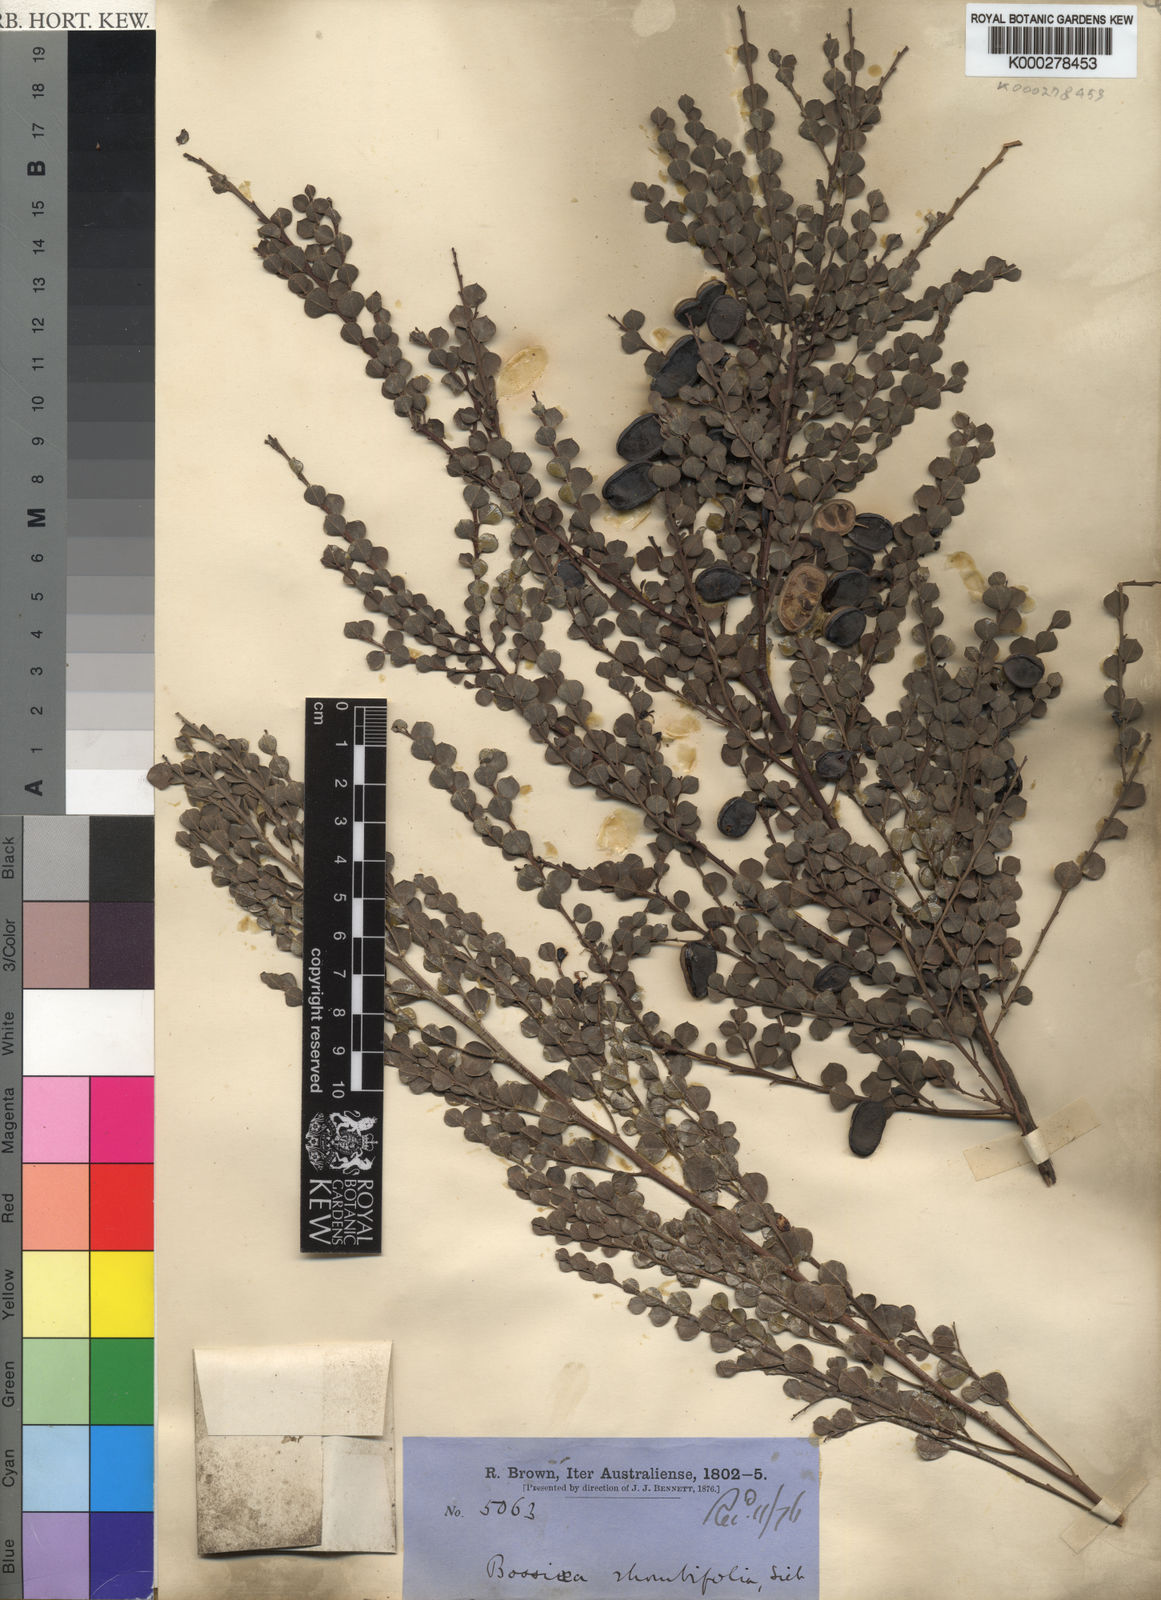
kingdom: Plantae
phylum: Tracheophyta
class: Magnoliopsida
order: Fabales
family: Fabaceae
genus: Bossiaea
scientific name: Bossiaea rhombifolia
